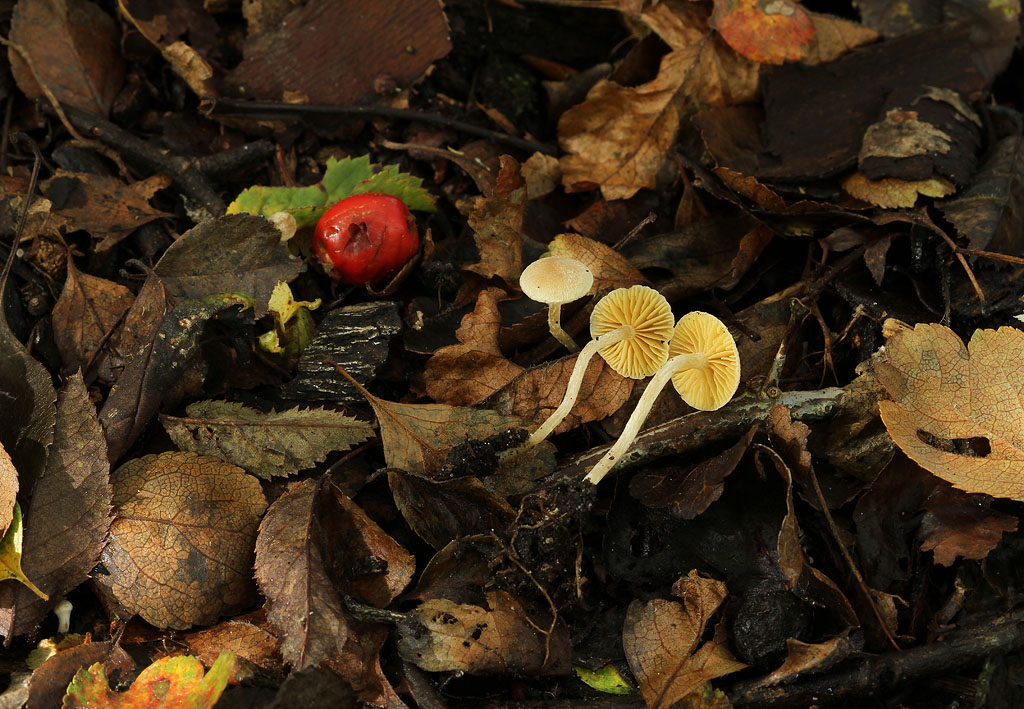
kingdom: Fungi
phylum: Basidiomycota
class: Agaricomycetes
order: Agaricales
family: Tubariaceae
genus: Tubaria
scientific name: Tubaria dispersa
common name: tjørne-fnughat
